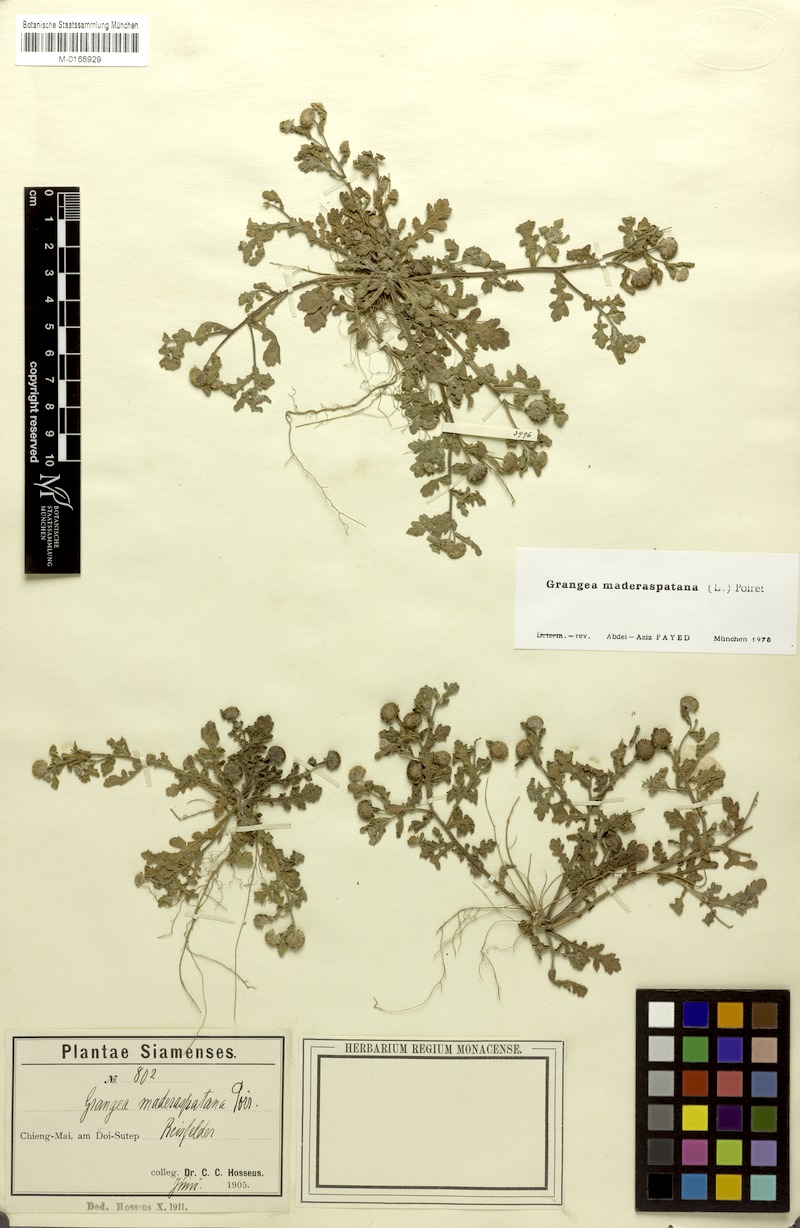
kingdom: Plantae
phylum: Tracheophyta
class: Magnoliopsida
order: Asterales
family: Asteraceae
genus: Grangea
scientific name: Grangea maderaspatana
